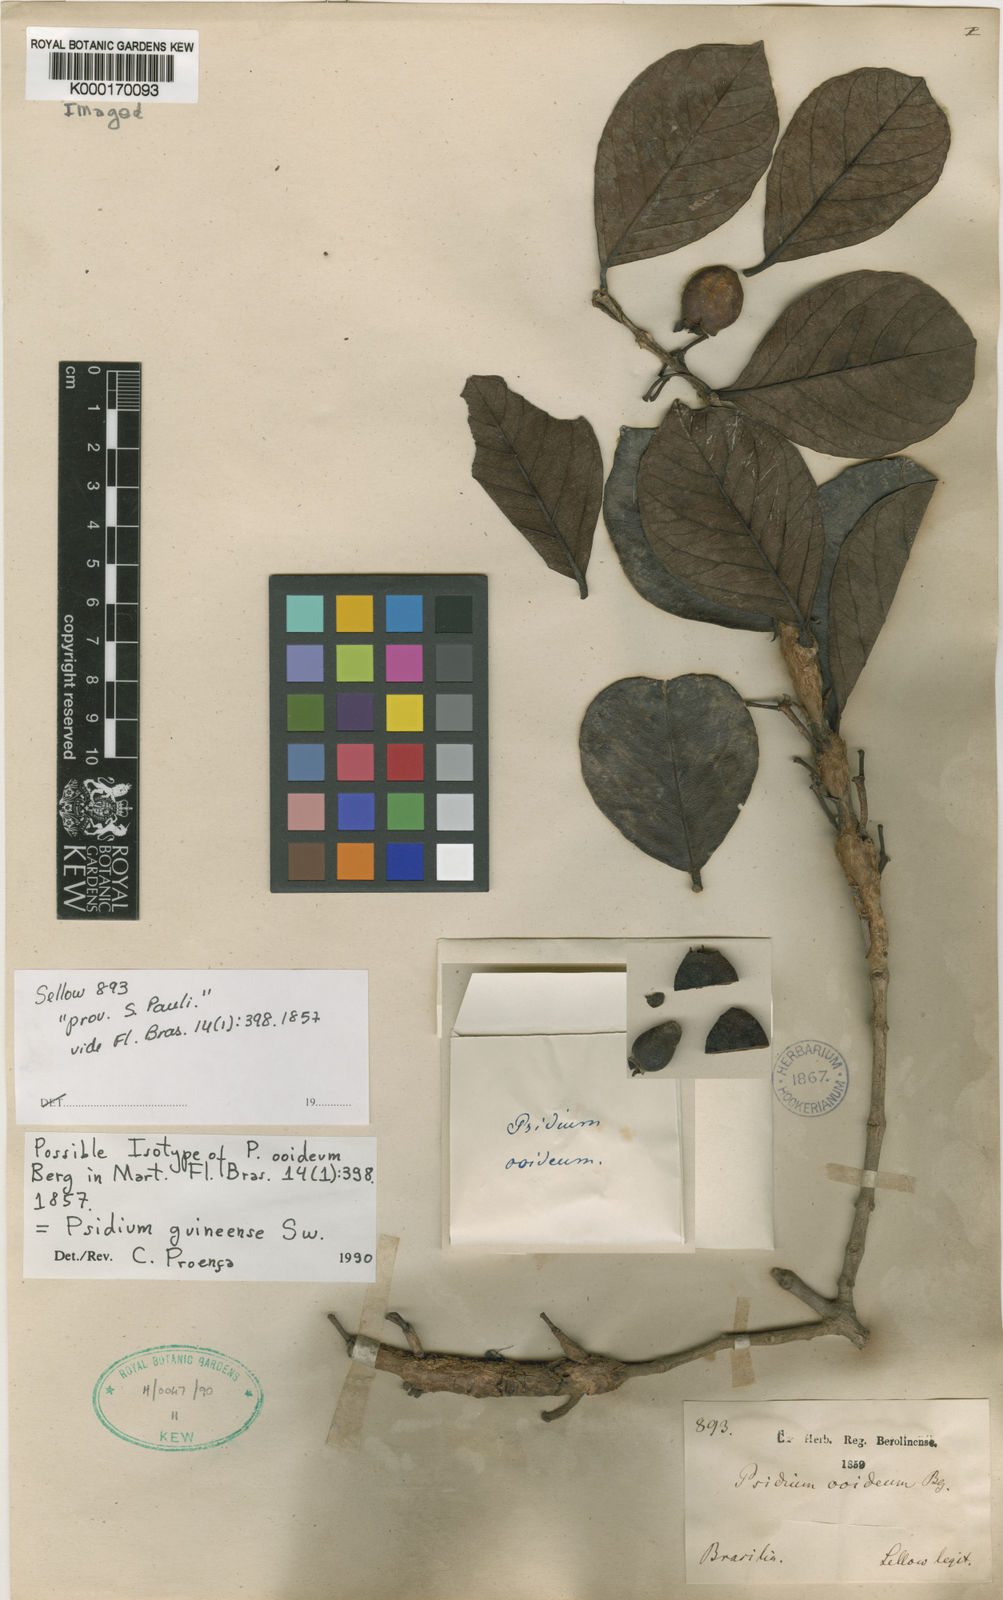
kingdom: Plantae
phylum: Tracheophyta
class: Magnoliopsida
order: Myrtales
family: Myrtaceae
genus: Psidium
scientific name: Psidium guineense
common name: Brazilian guava
